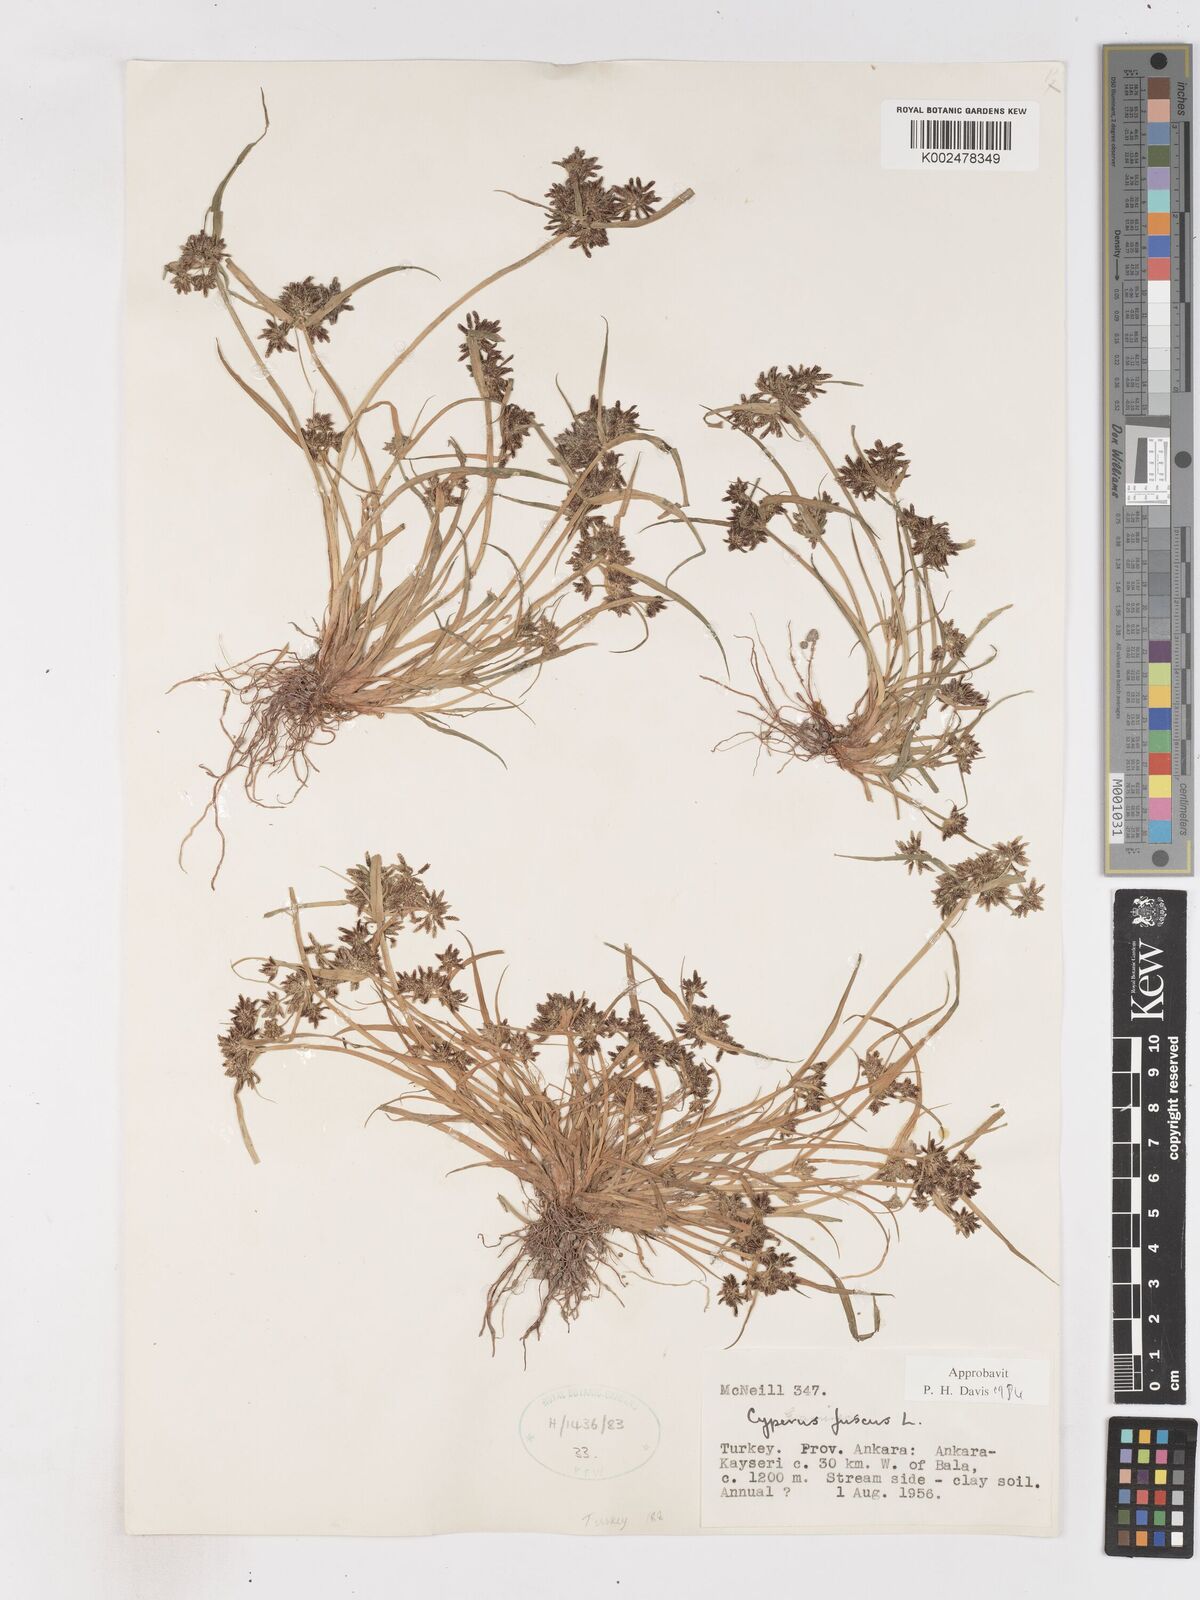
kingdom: Plantae
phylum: Tracheophyta
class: Liliopsida
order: Poales
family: Cyperaceae
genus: Cyperus
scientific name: Cyperus fuscus
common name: Brown galingale
